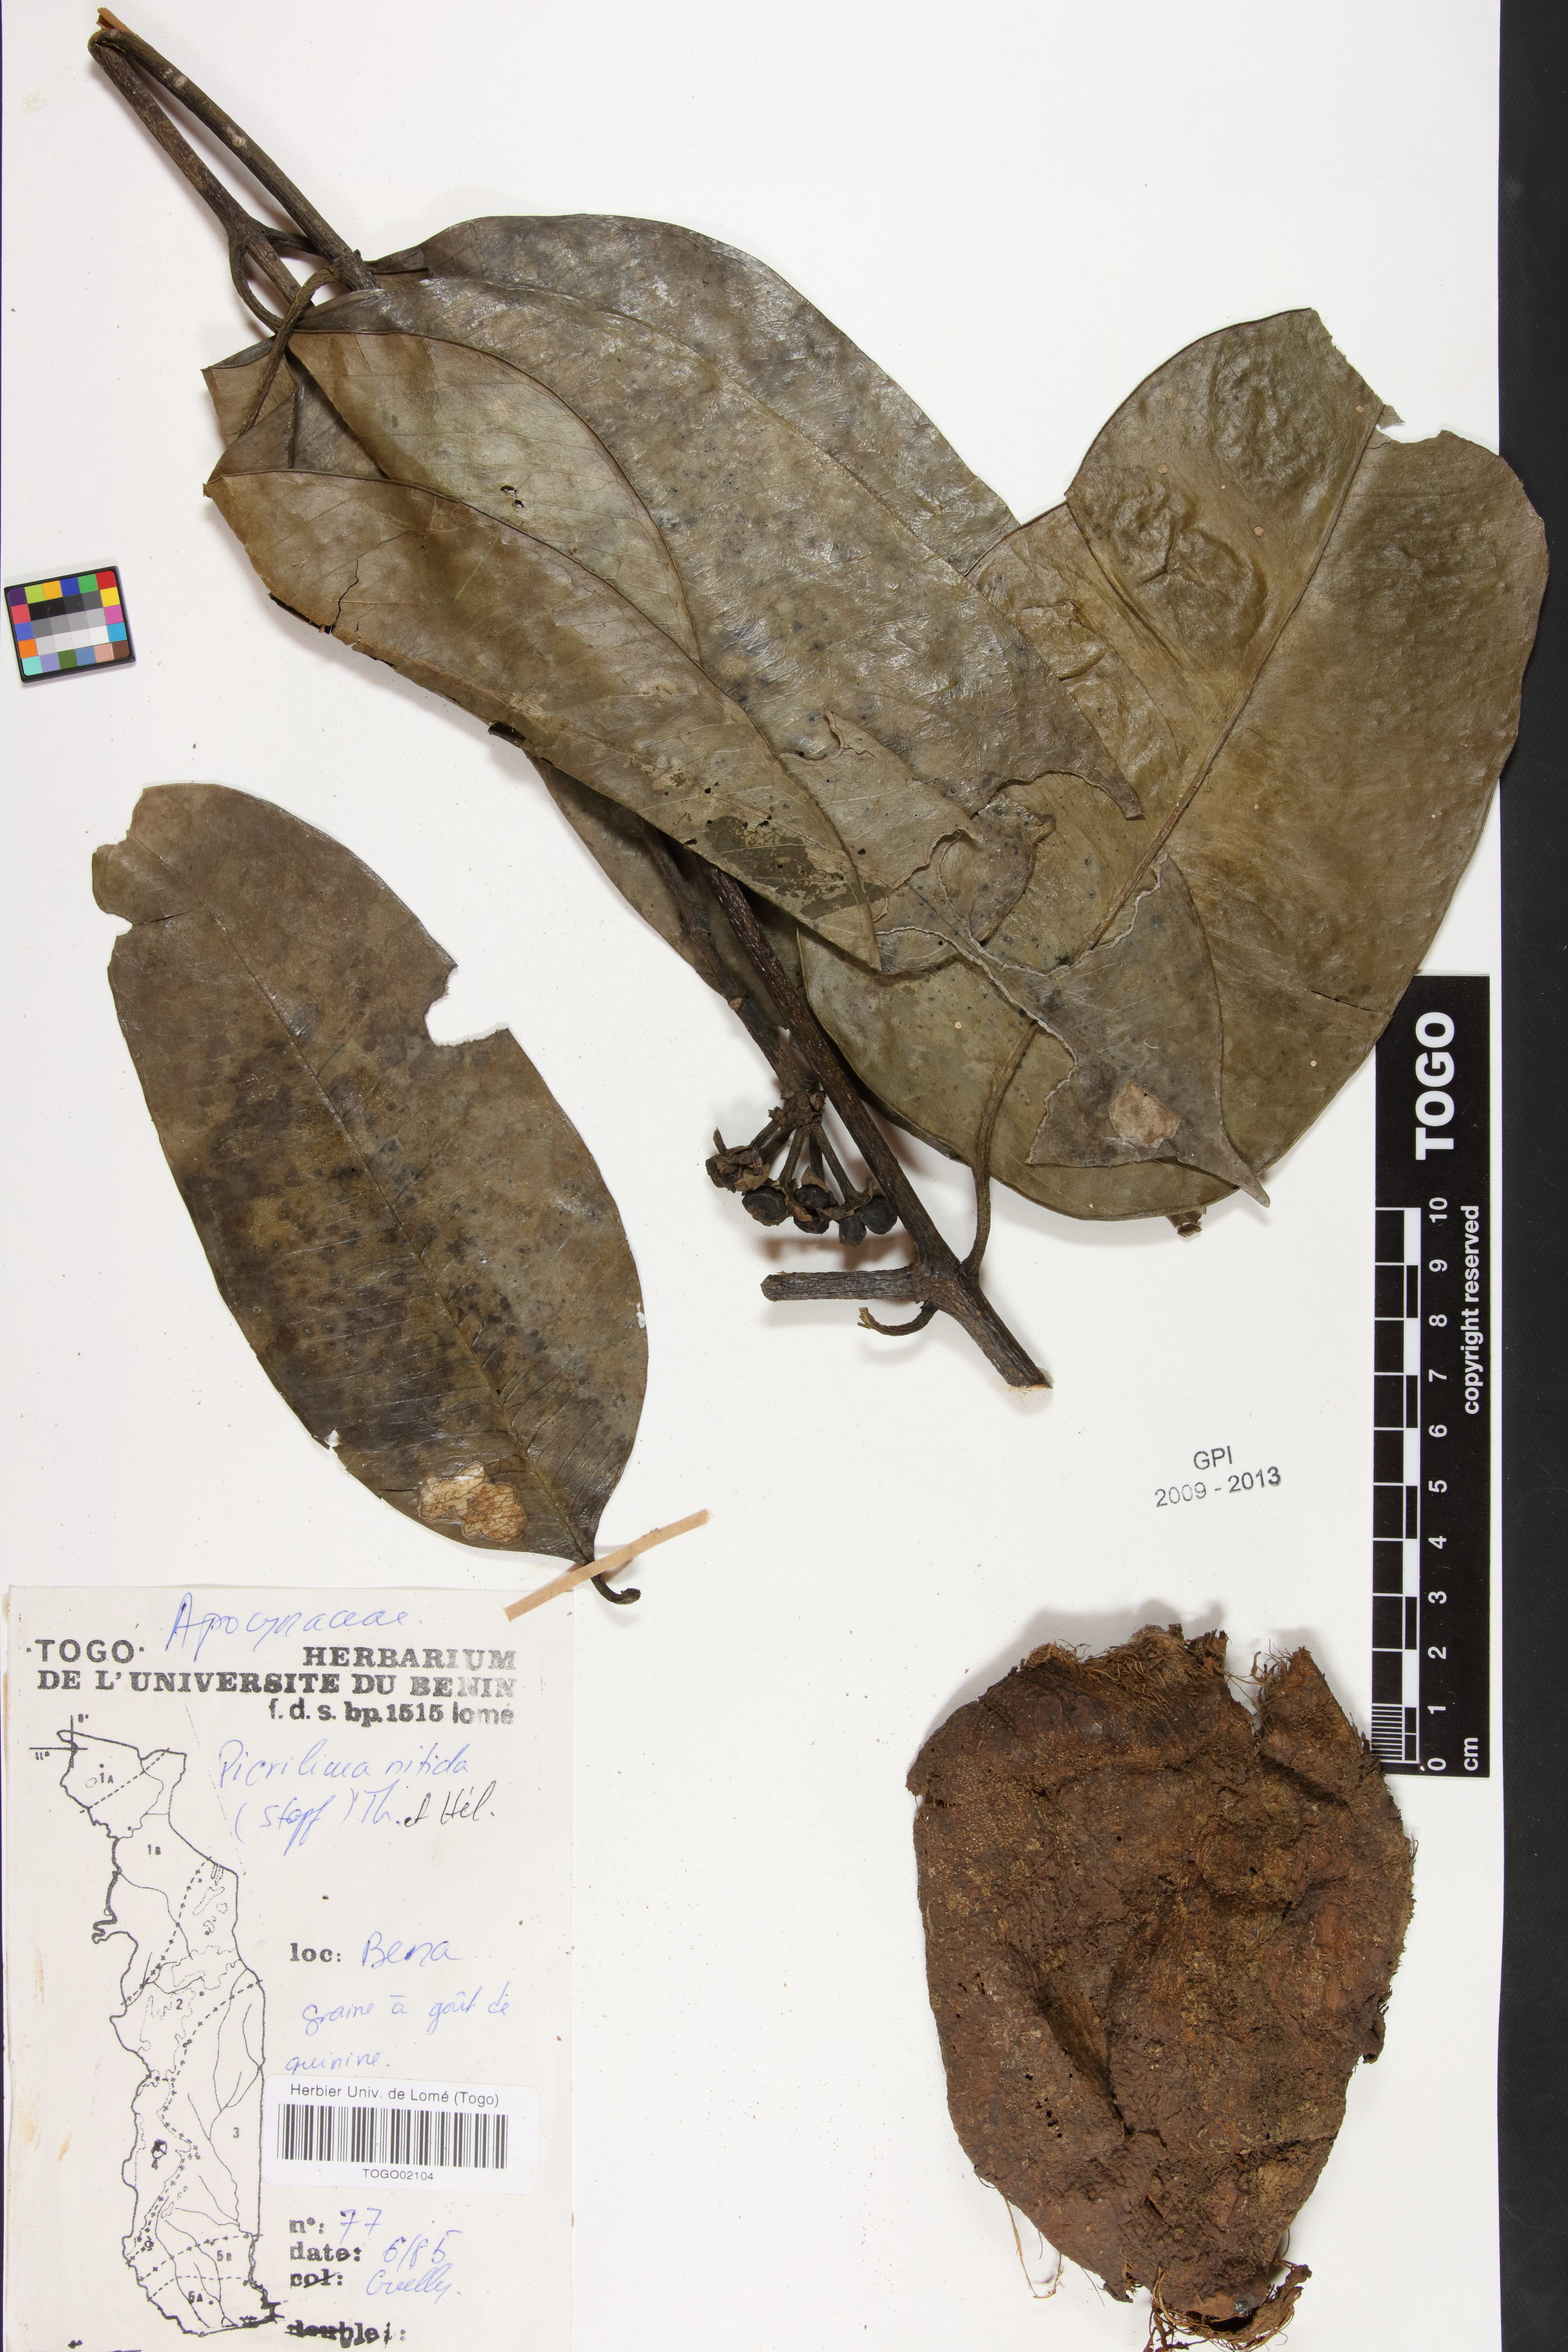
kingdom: Plantae
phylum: Tracheophyta
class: Magnoliopsida
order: Gentianales
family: Apocynaceae
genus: Picralima
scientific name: Picralima nitida
